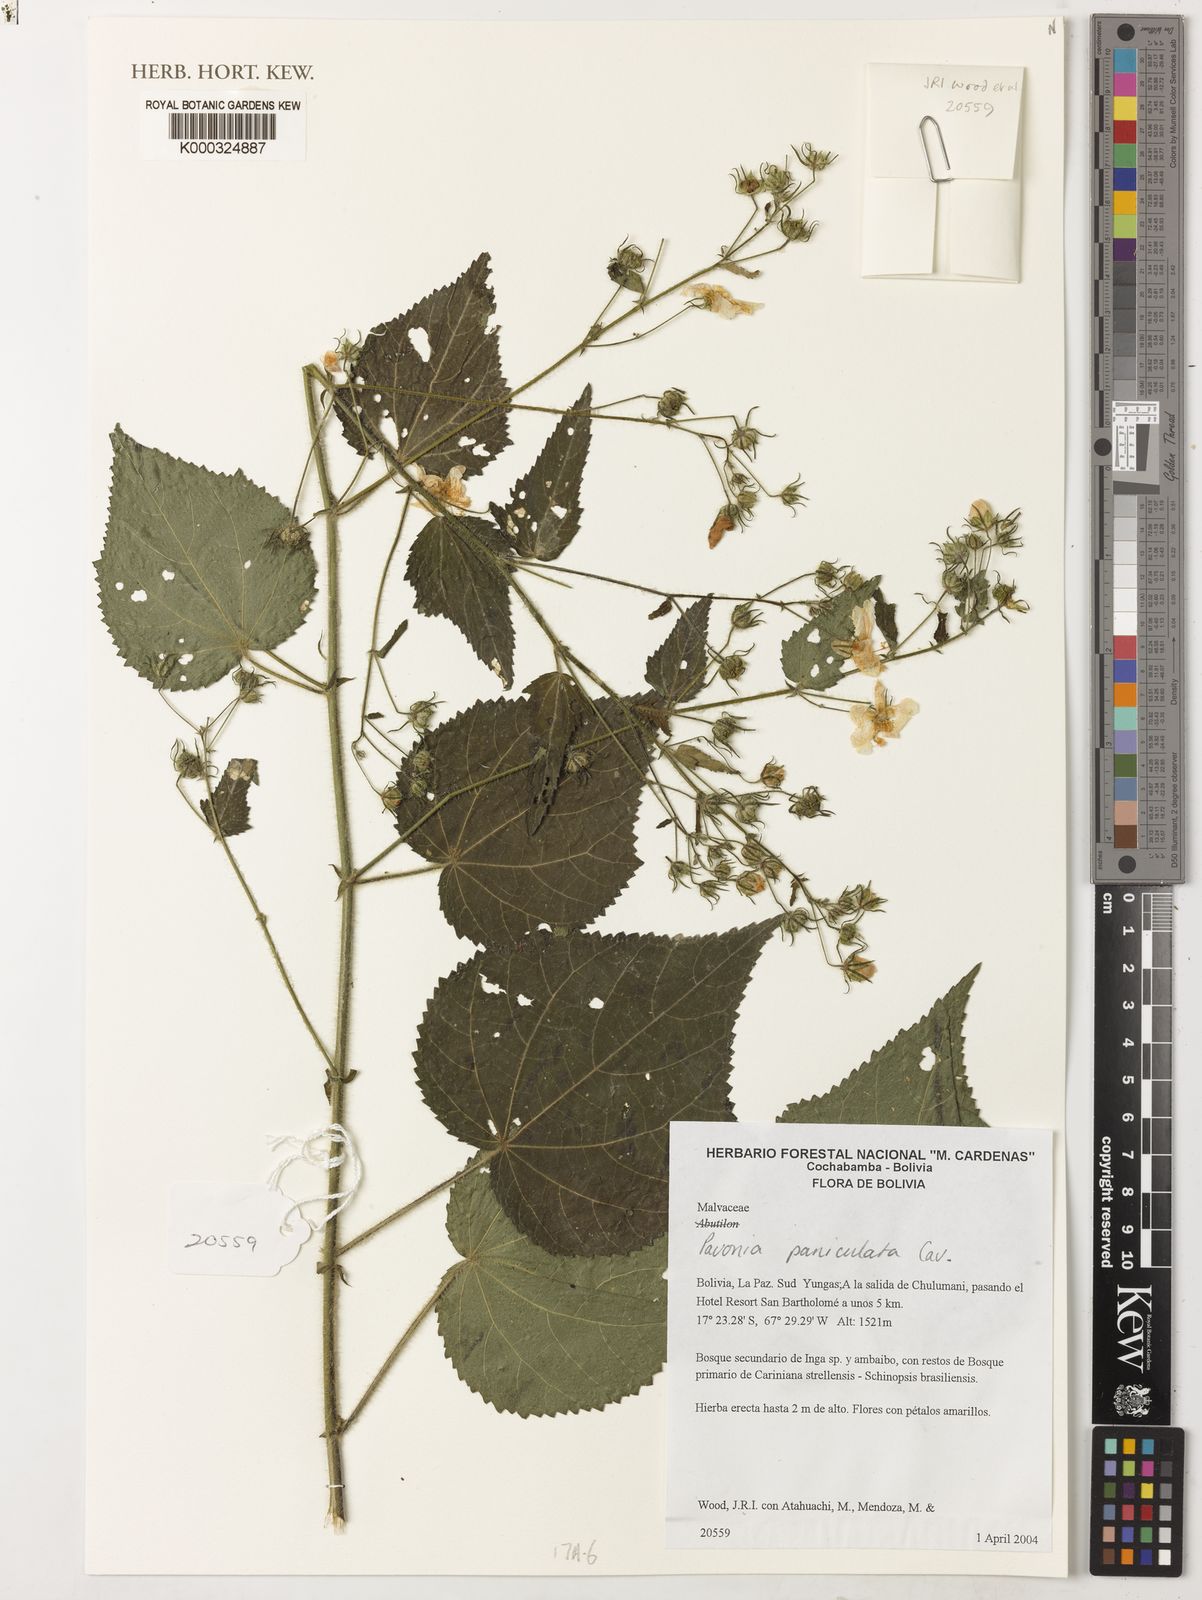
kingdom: Plantae
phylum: Tracheophyta
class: Magnoliopsida
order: Malvales
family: Malvaceae
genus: Pavonia
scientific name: Pavonia paniculata
